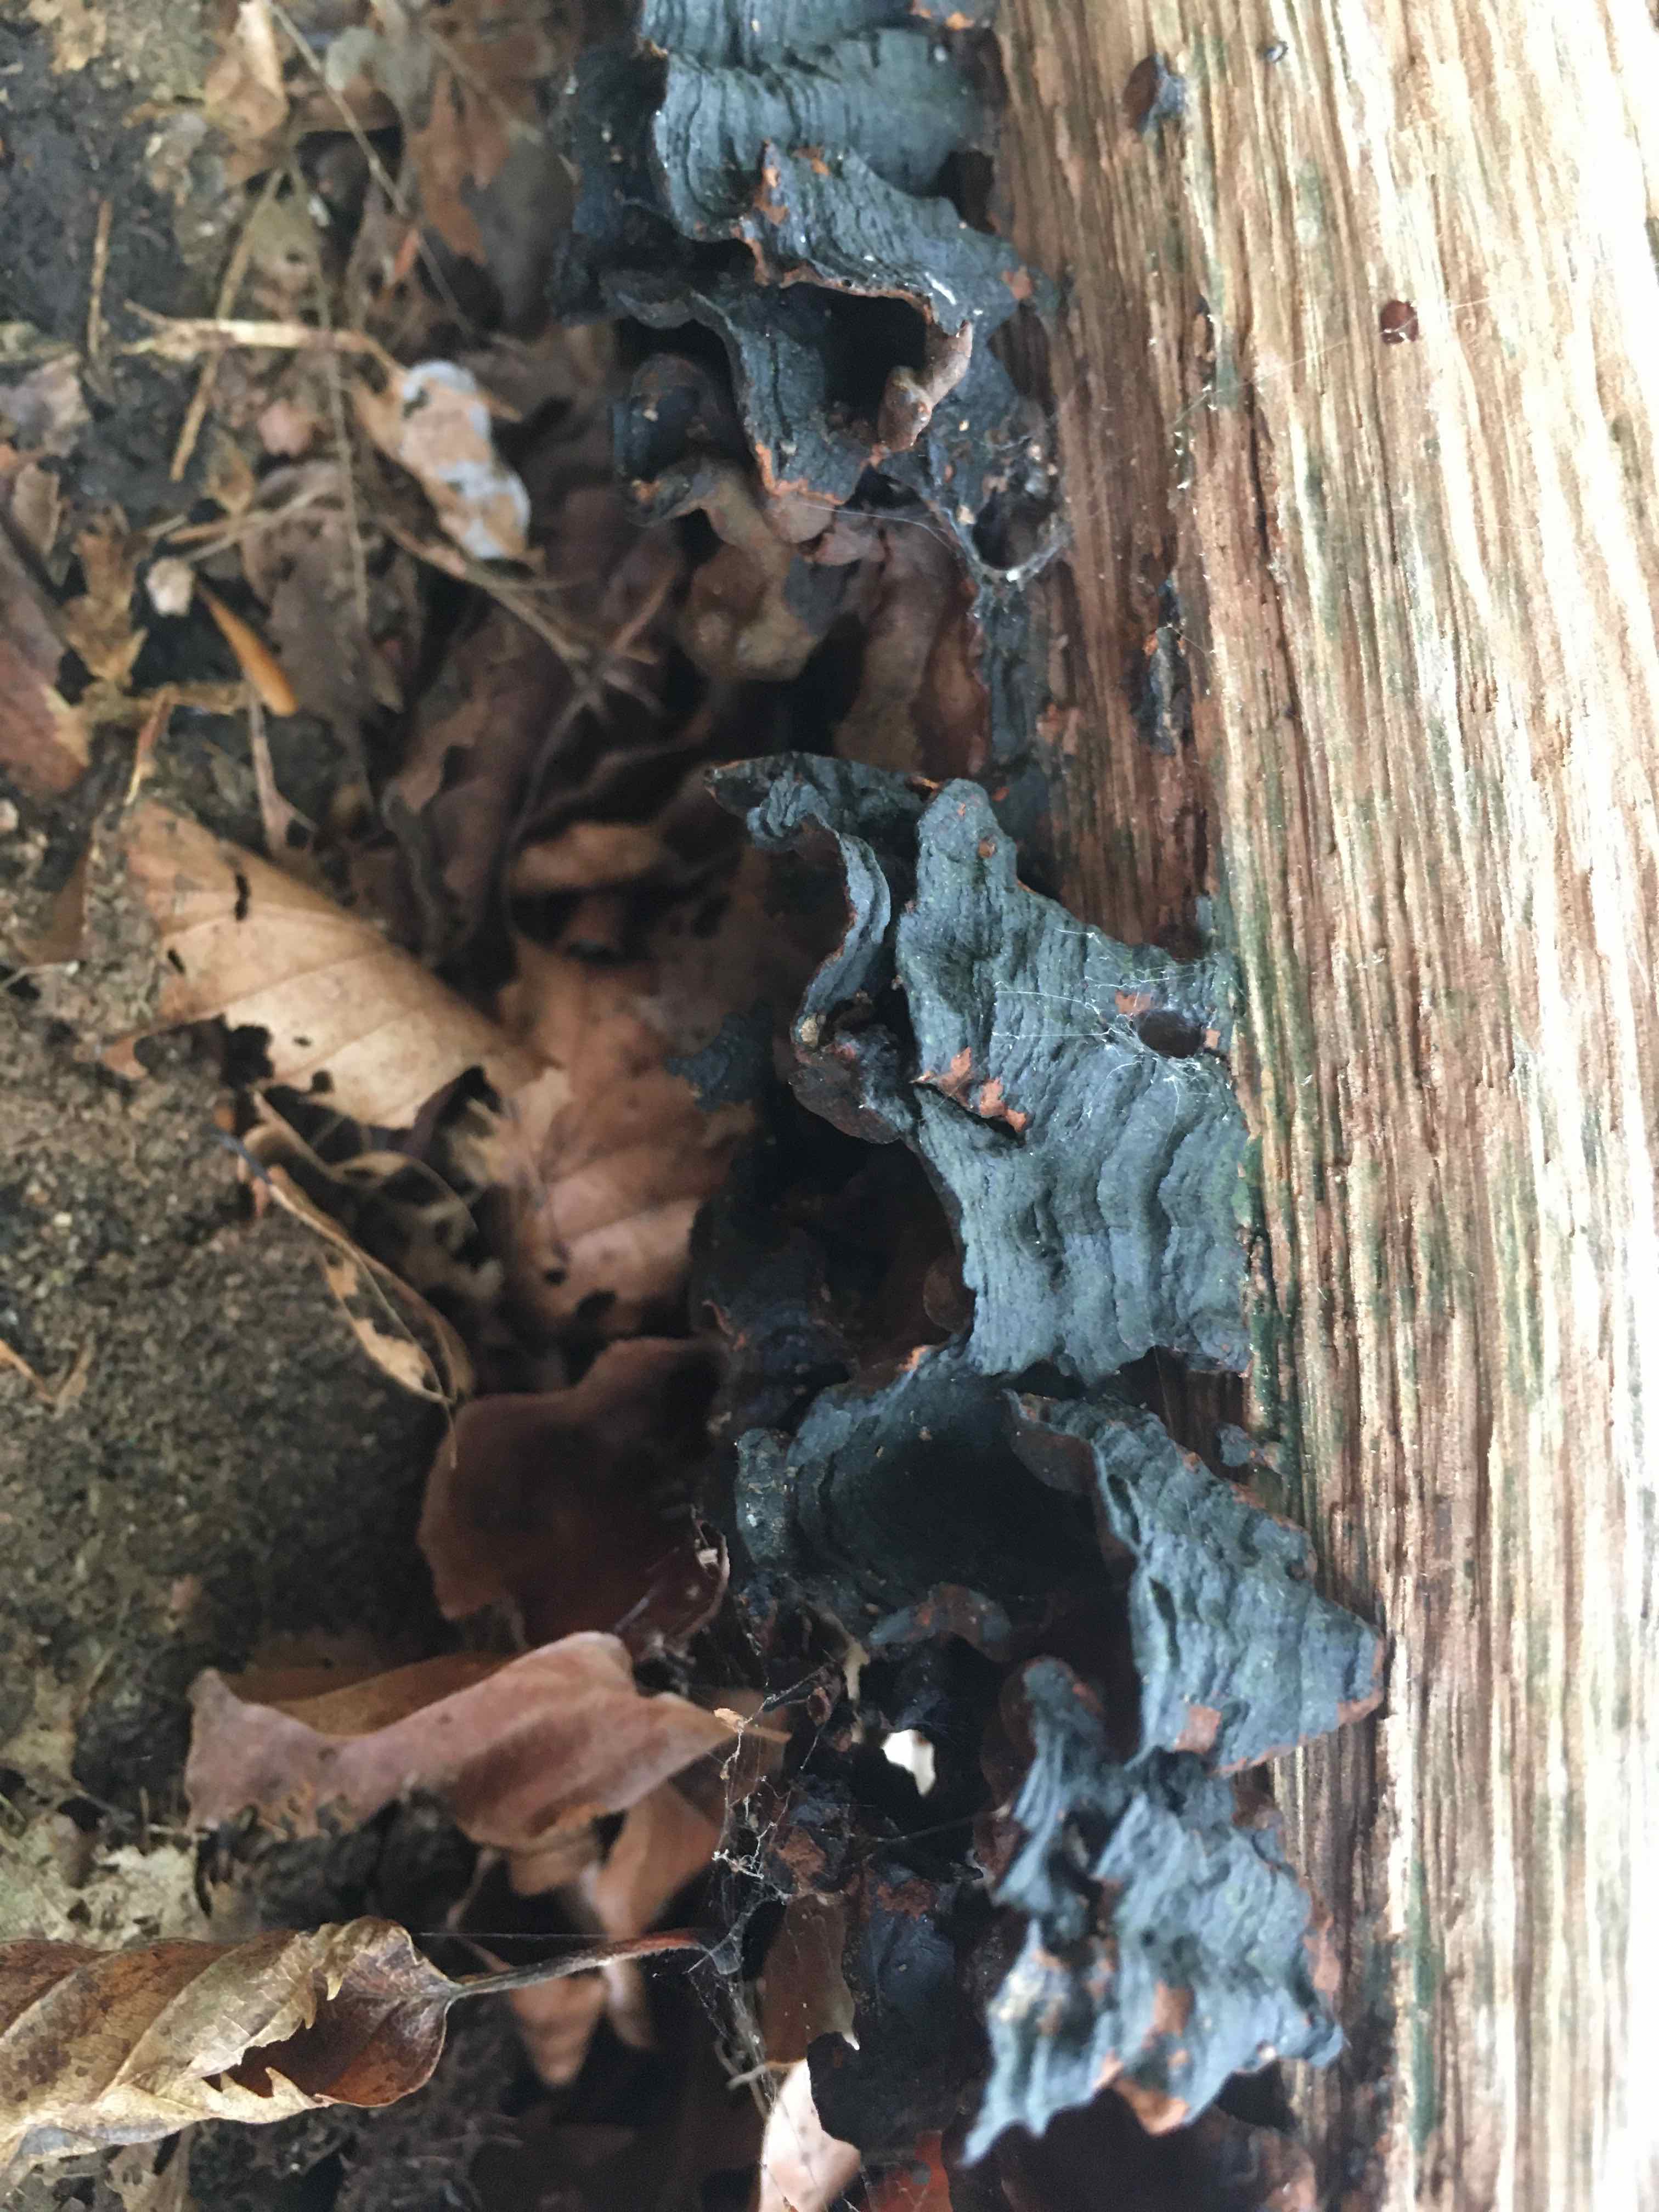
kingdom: Fungi
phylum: Basidiomycota
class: Agaricomycetes
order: Hymenochaetales
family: Hymenochaetaceae
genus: Hymenochaete
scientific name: Hymenochaete rubiginosa
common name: stiv ruslædersvamp
